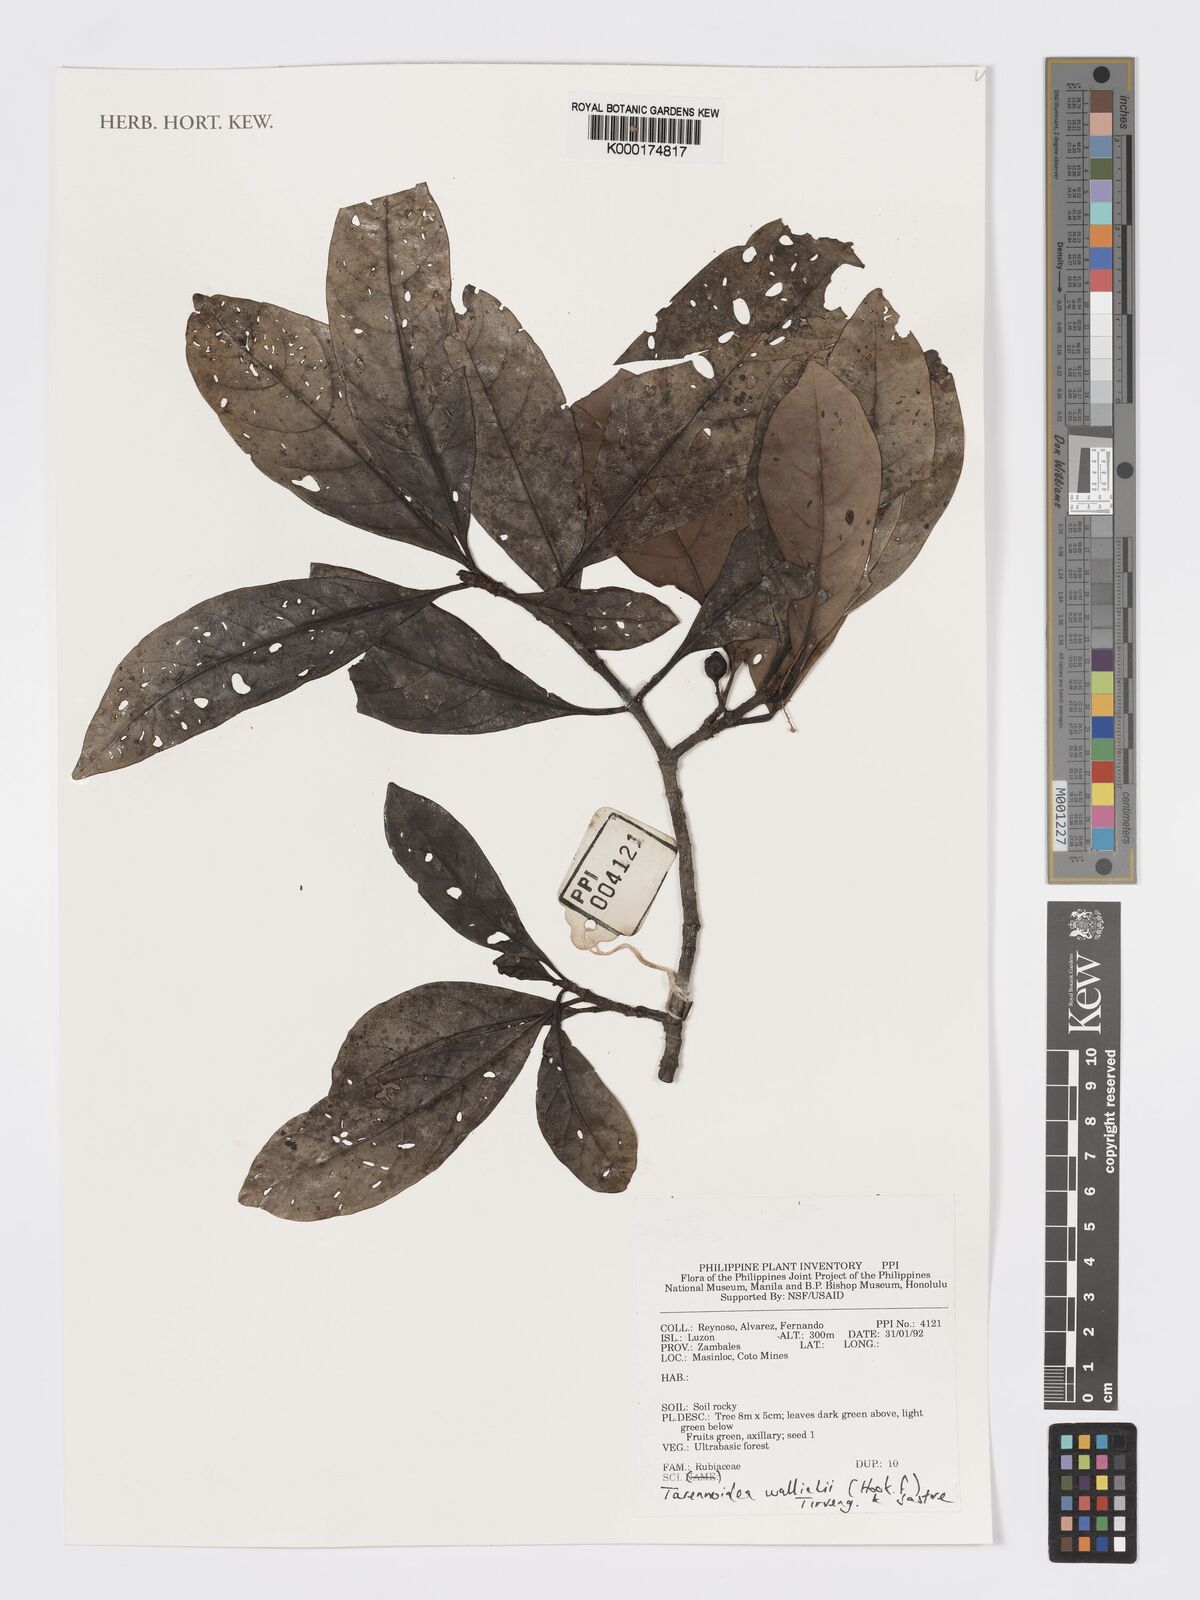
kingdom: Plantae
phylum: Tracheophyta
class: Magnoliopsida
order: Gentianales
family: Rubiaceae
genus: Tarennoidea
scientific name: Tarennoidea
